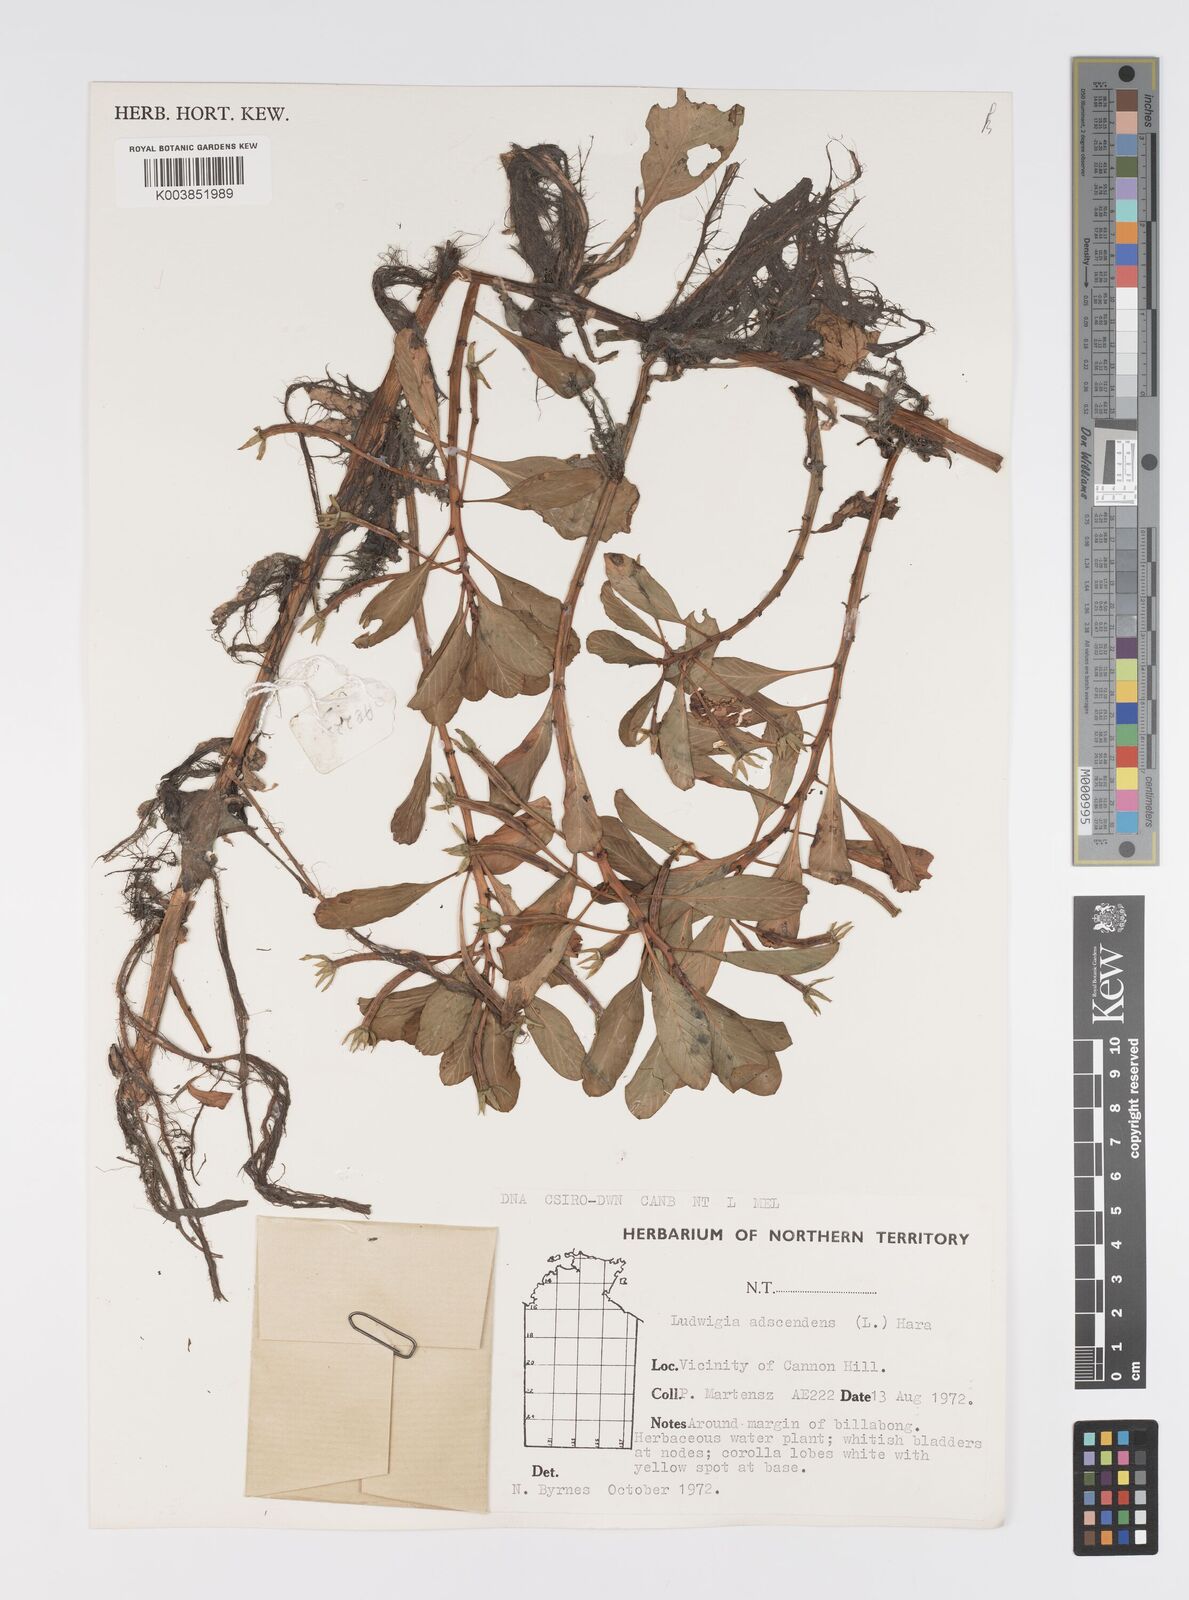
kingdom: Plantae
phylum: Tracheophyta
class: Magnoliopsida
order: Myrtales
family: Onagraceae
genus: Ludwigia
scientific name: Ludwigia adscendens
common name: Creeping water primrose
